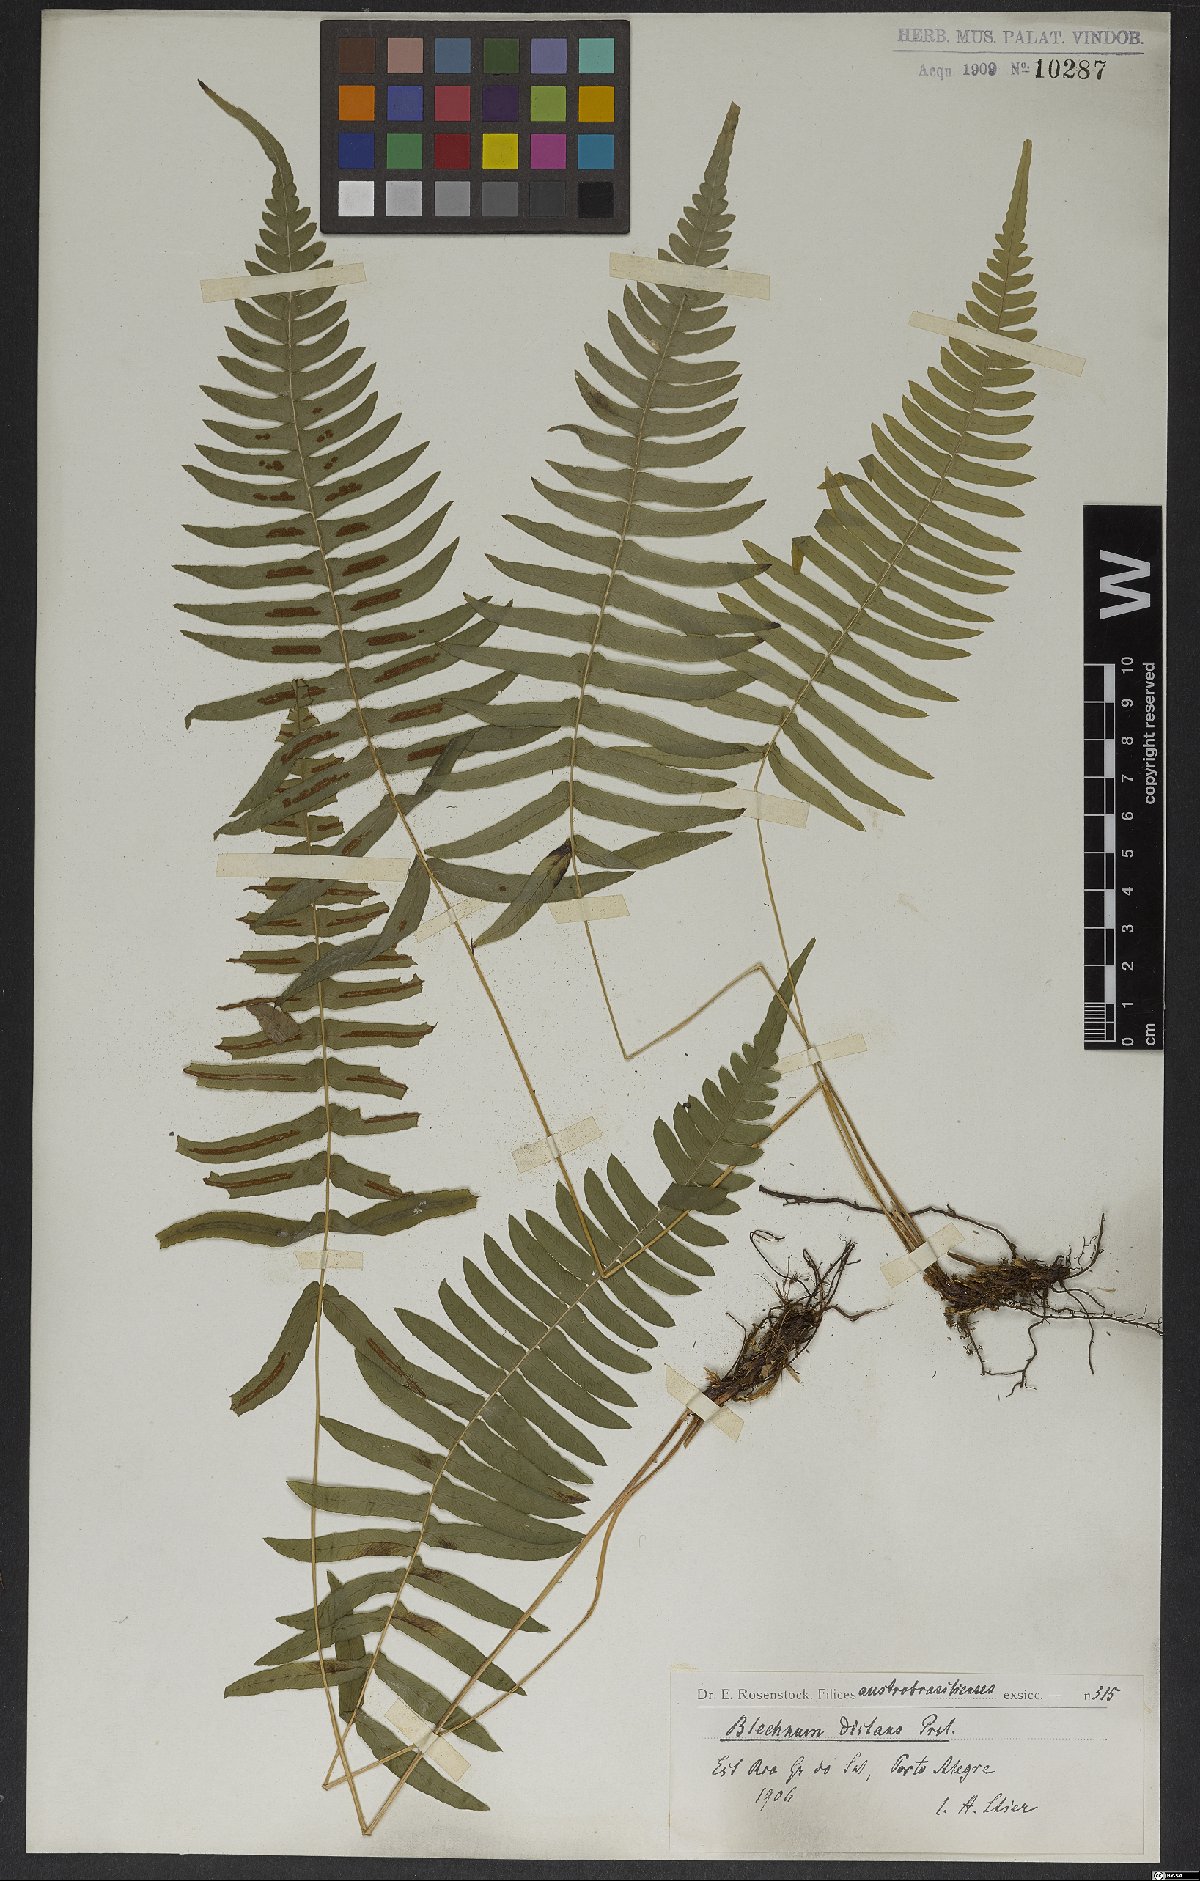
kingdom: Plantae
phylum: Tracheophyta
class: Polypodiopsida
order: Polypodiales
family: Blechnaceae
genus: Blechnum
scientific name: Blechnum occidentale
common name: Hammock fern
